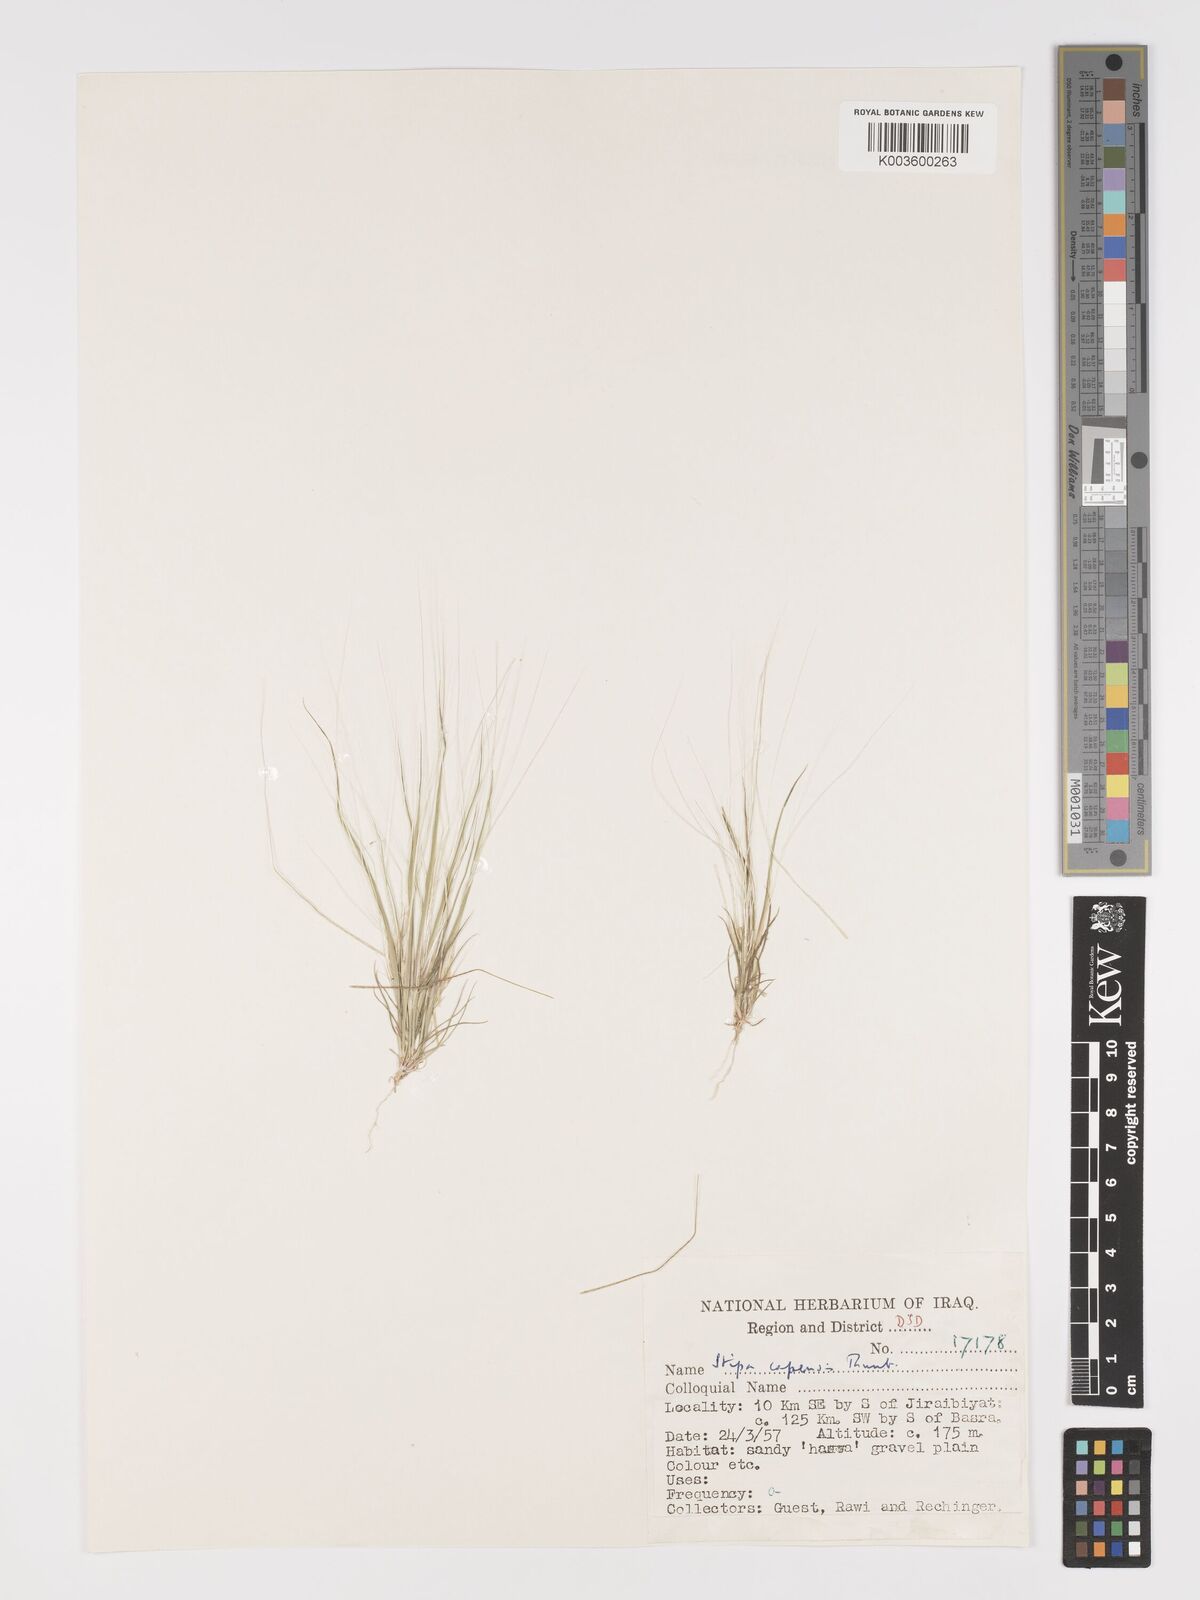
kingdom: Plantae
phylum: Tracheophyta
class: Liliopsida
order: Poales
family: Poaceae
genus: Stipellula
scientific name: Stipellula capensis
